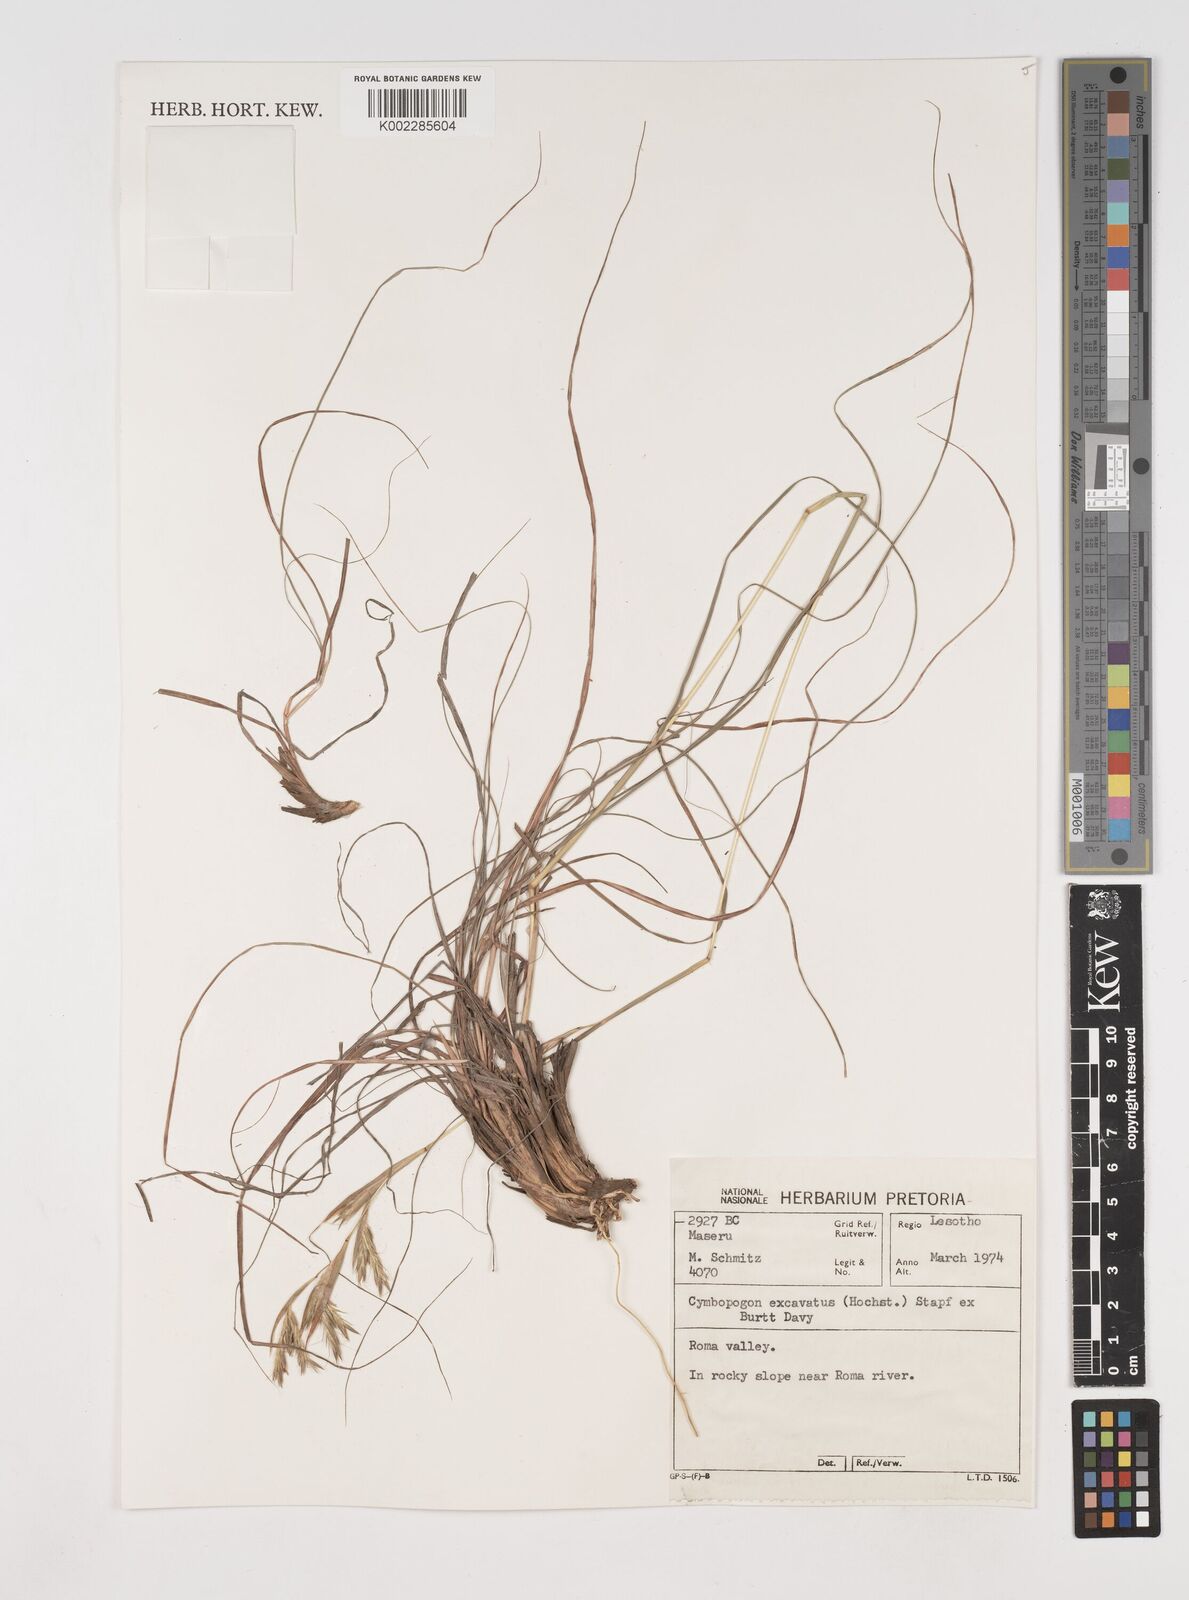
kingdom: Plantae
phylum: Tracheophyta
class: Liliopsida
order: Poales
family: Poaceae
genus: Cymbopogon
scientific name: Cymbopogon caesius
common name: Kachi grass
